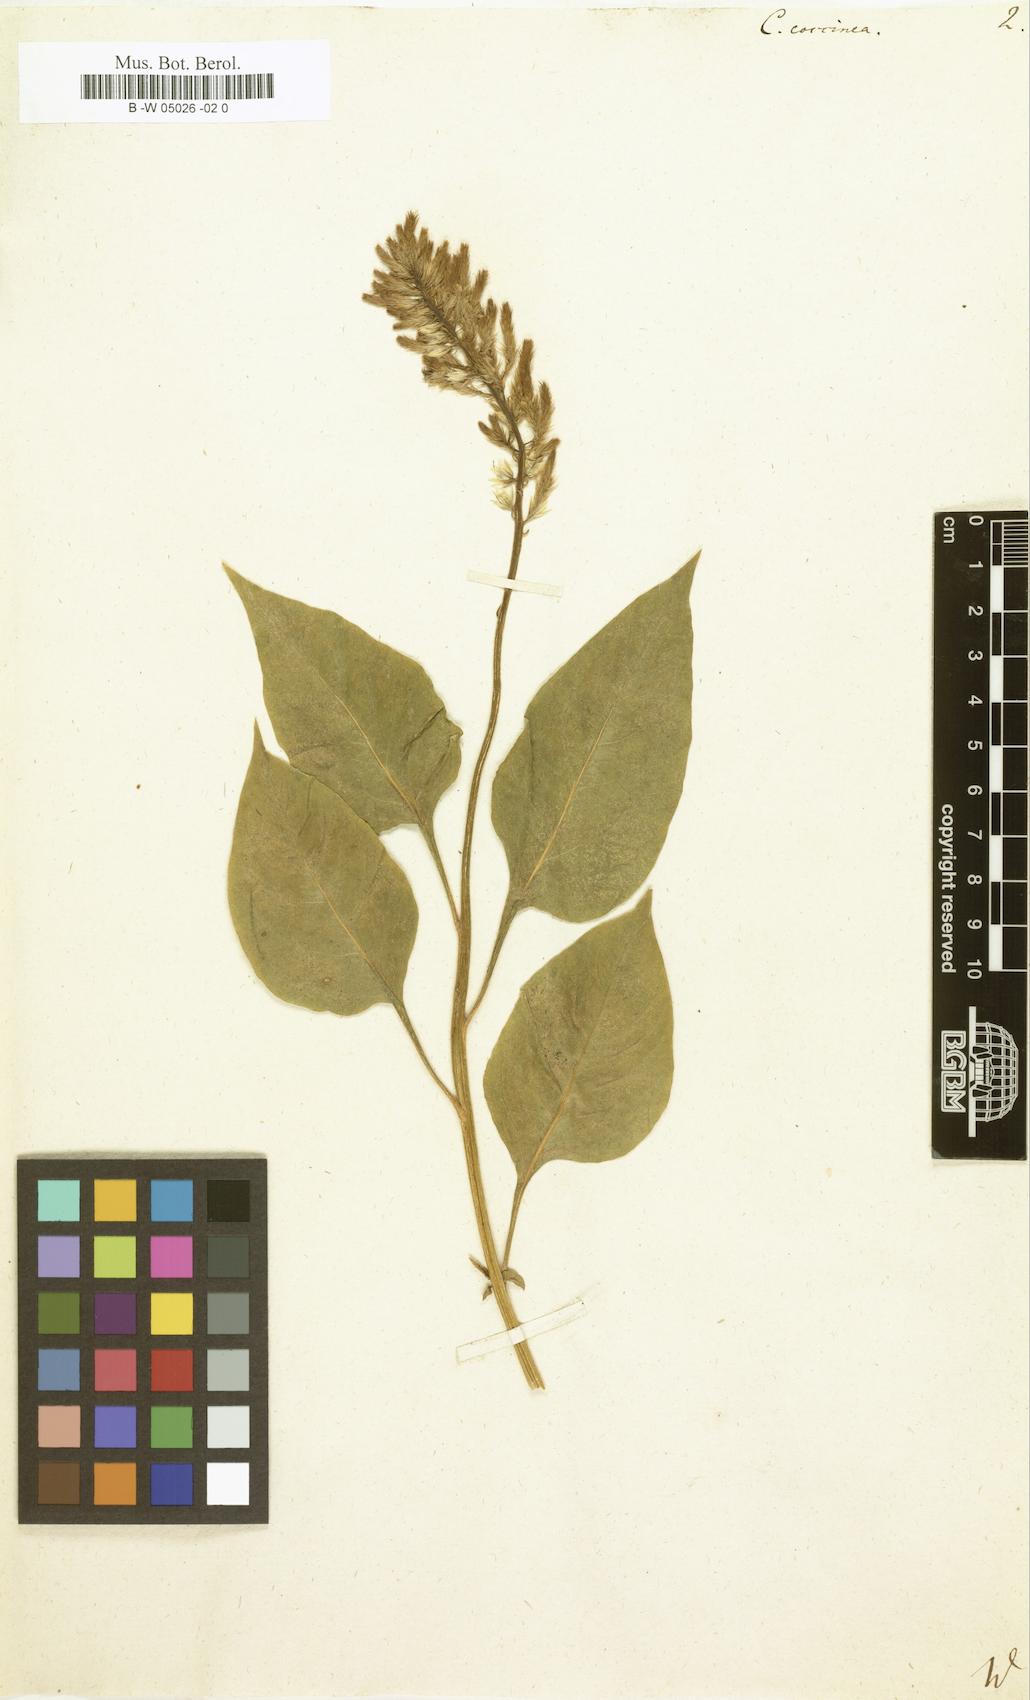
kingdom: Plantae
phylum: Tracheophyta
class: Magnoliopsida
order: Caryophyllales
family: Amaranthaceae
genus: Celosia
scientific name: Celosia argentea
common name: Feather cockscomb
